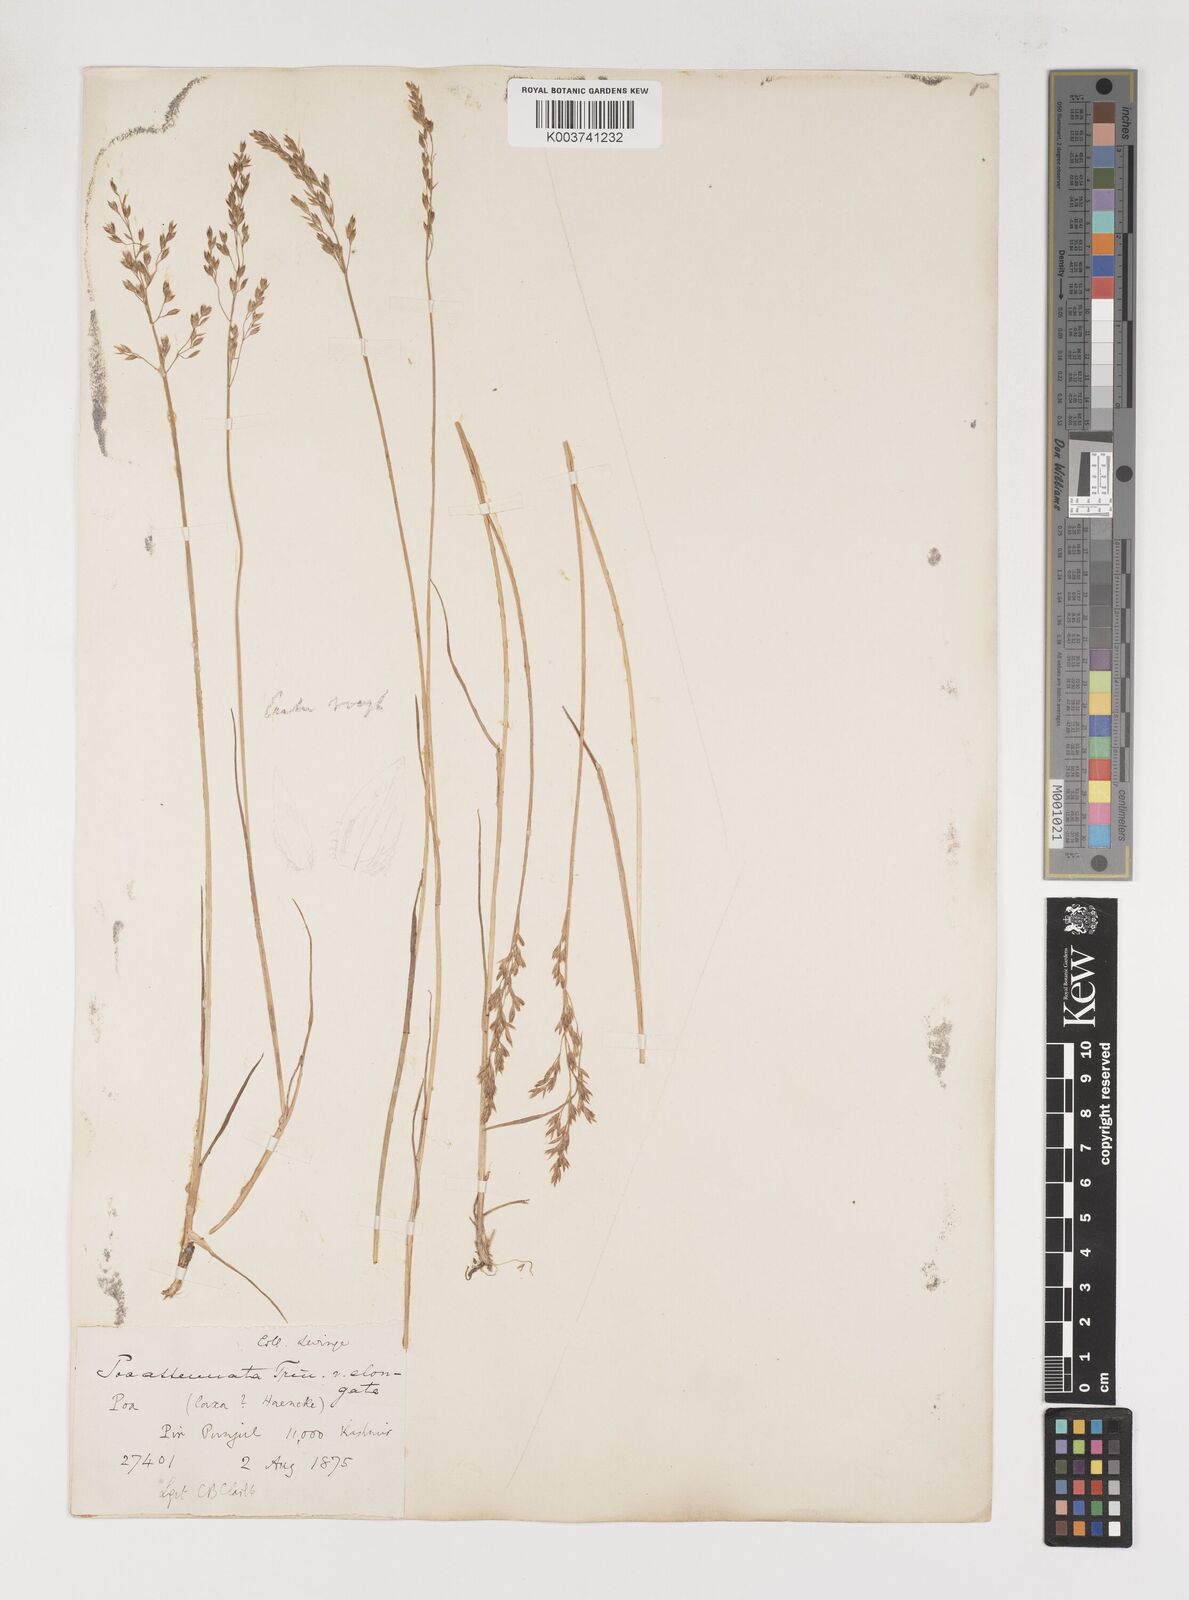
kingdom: Plantae
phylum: Tracheophyta
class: Liliopsida
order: Poales
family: Poaceae
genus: Poa
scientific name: Poa araratica
